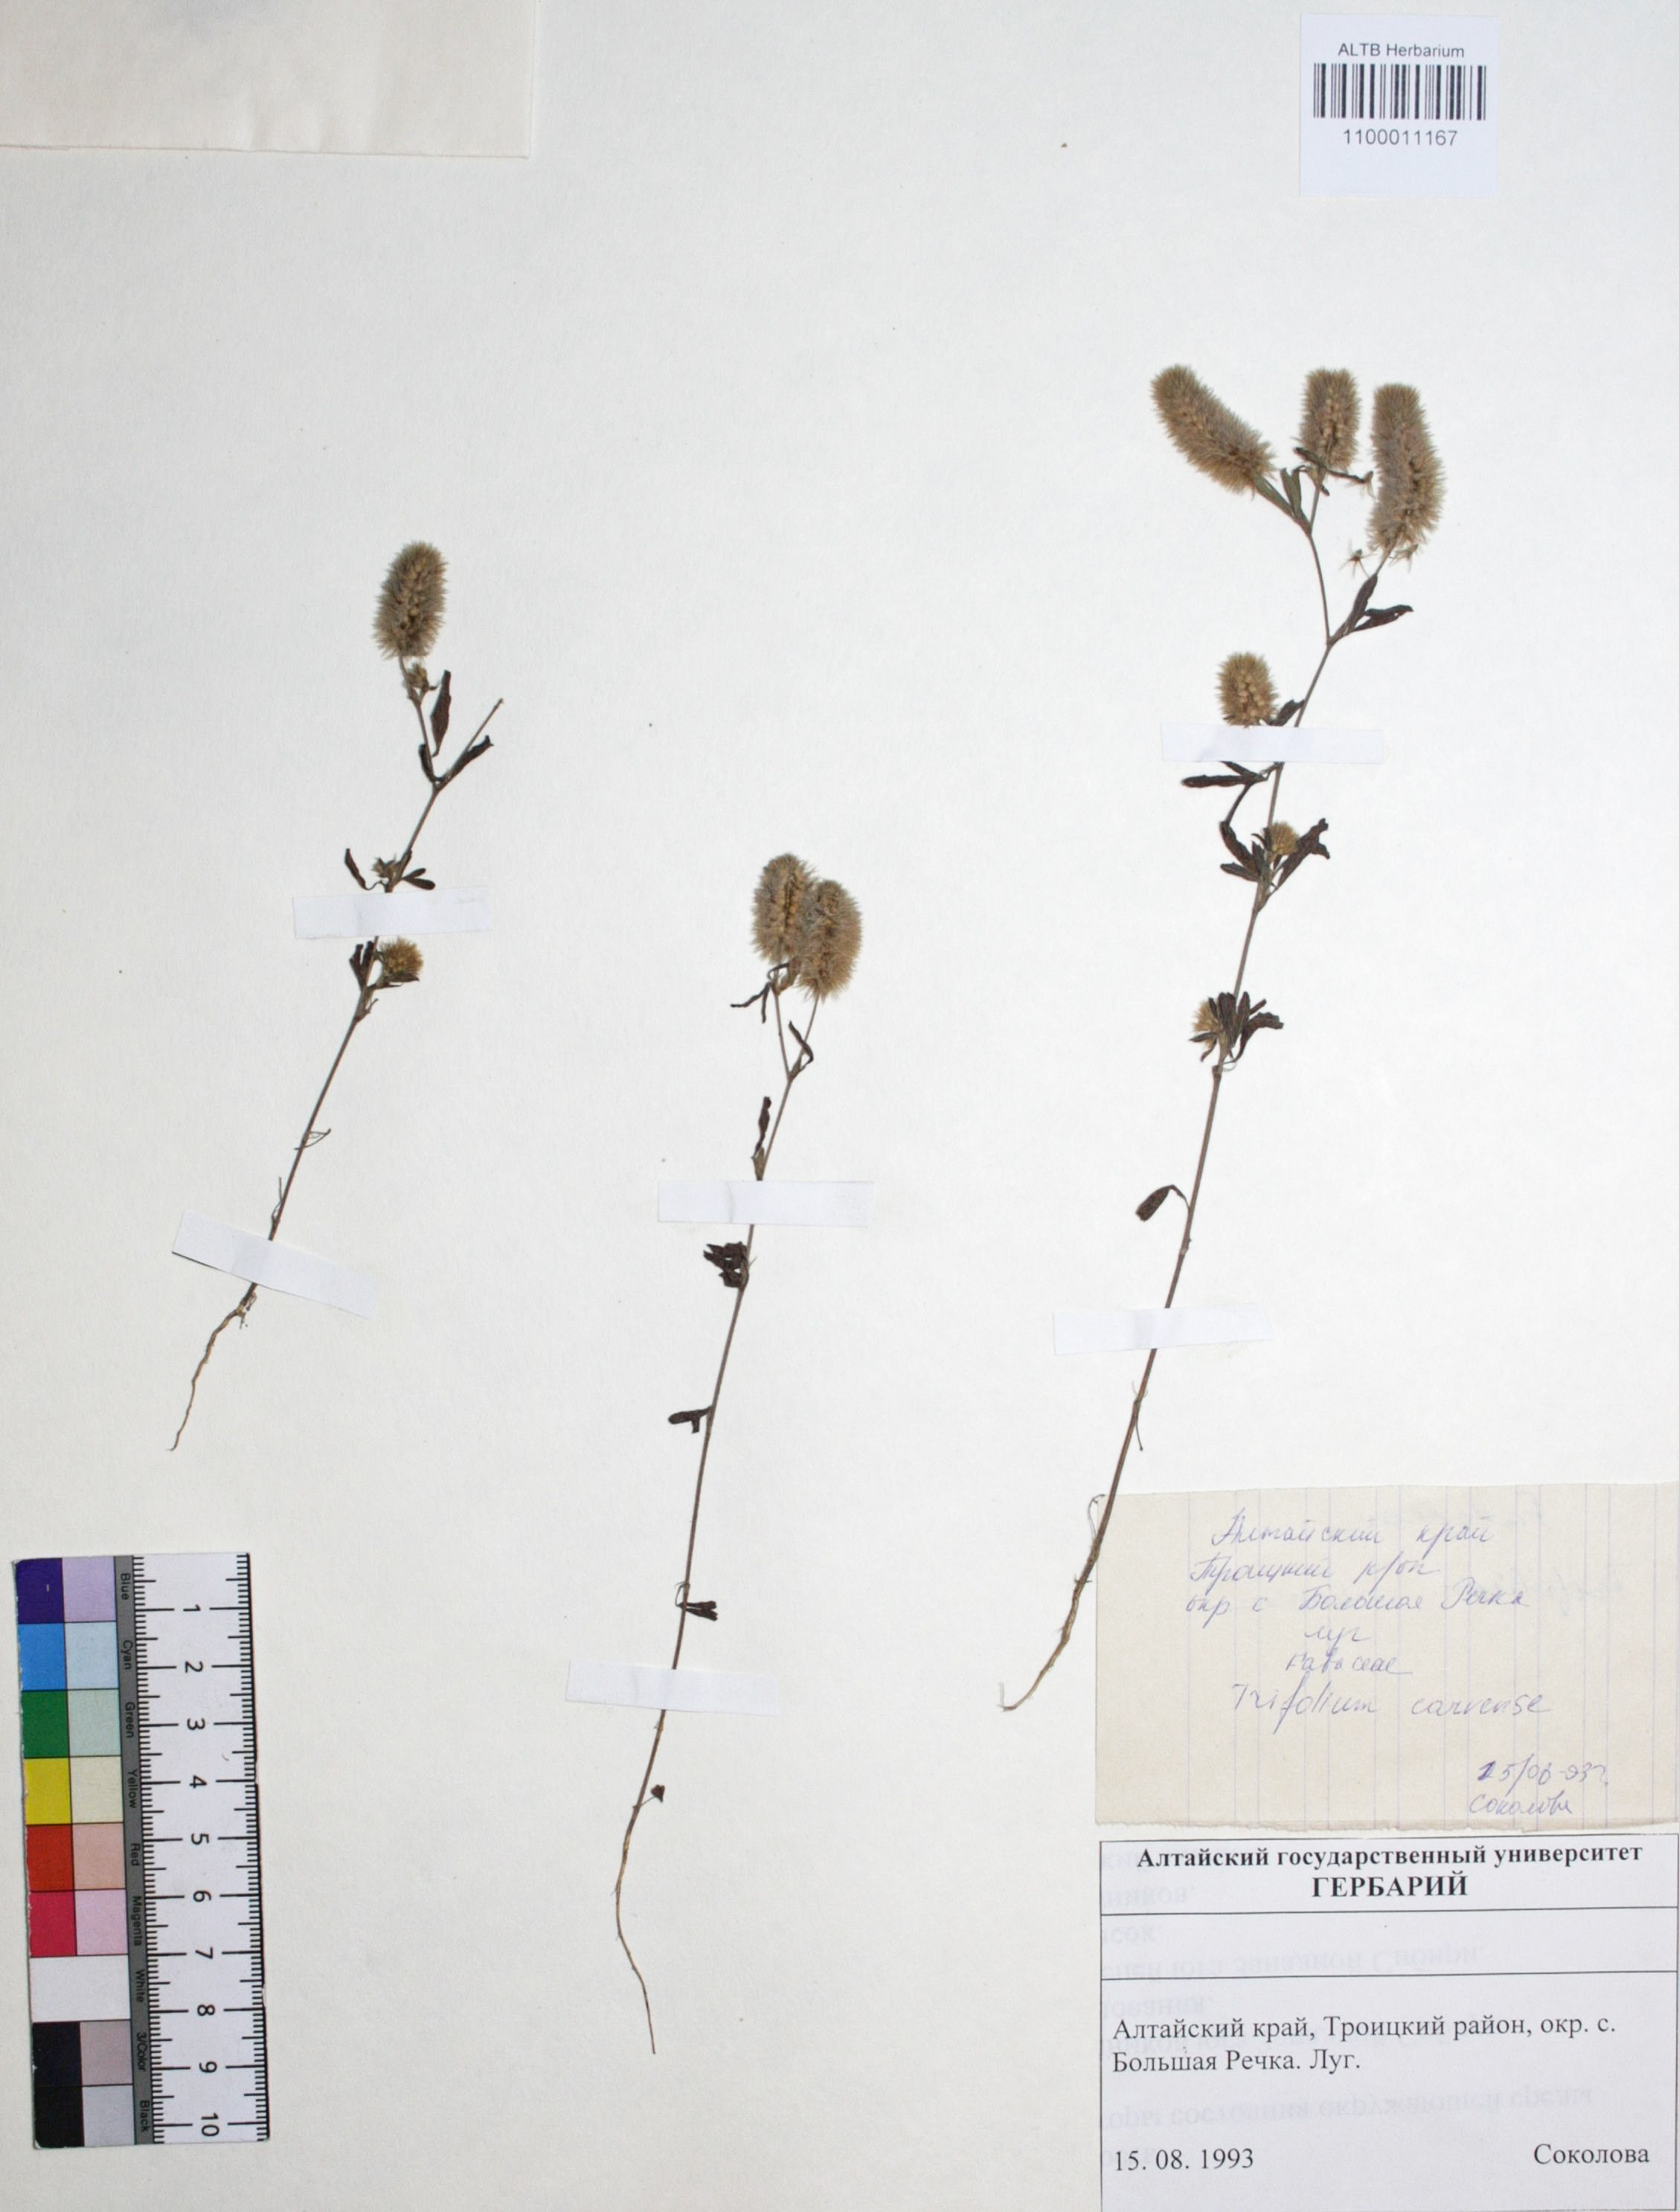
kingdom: Plantae
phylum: Tracheophyta
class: Magnoliopsida
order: Fabales
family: Fabaceae
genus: Trifolium
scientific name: Trifolium arvense
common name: Hare's-foot clover
